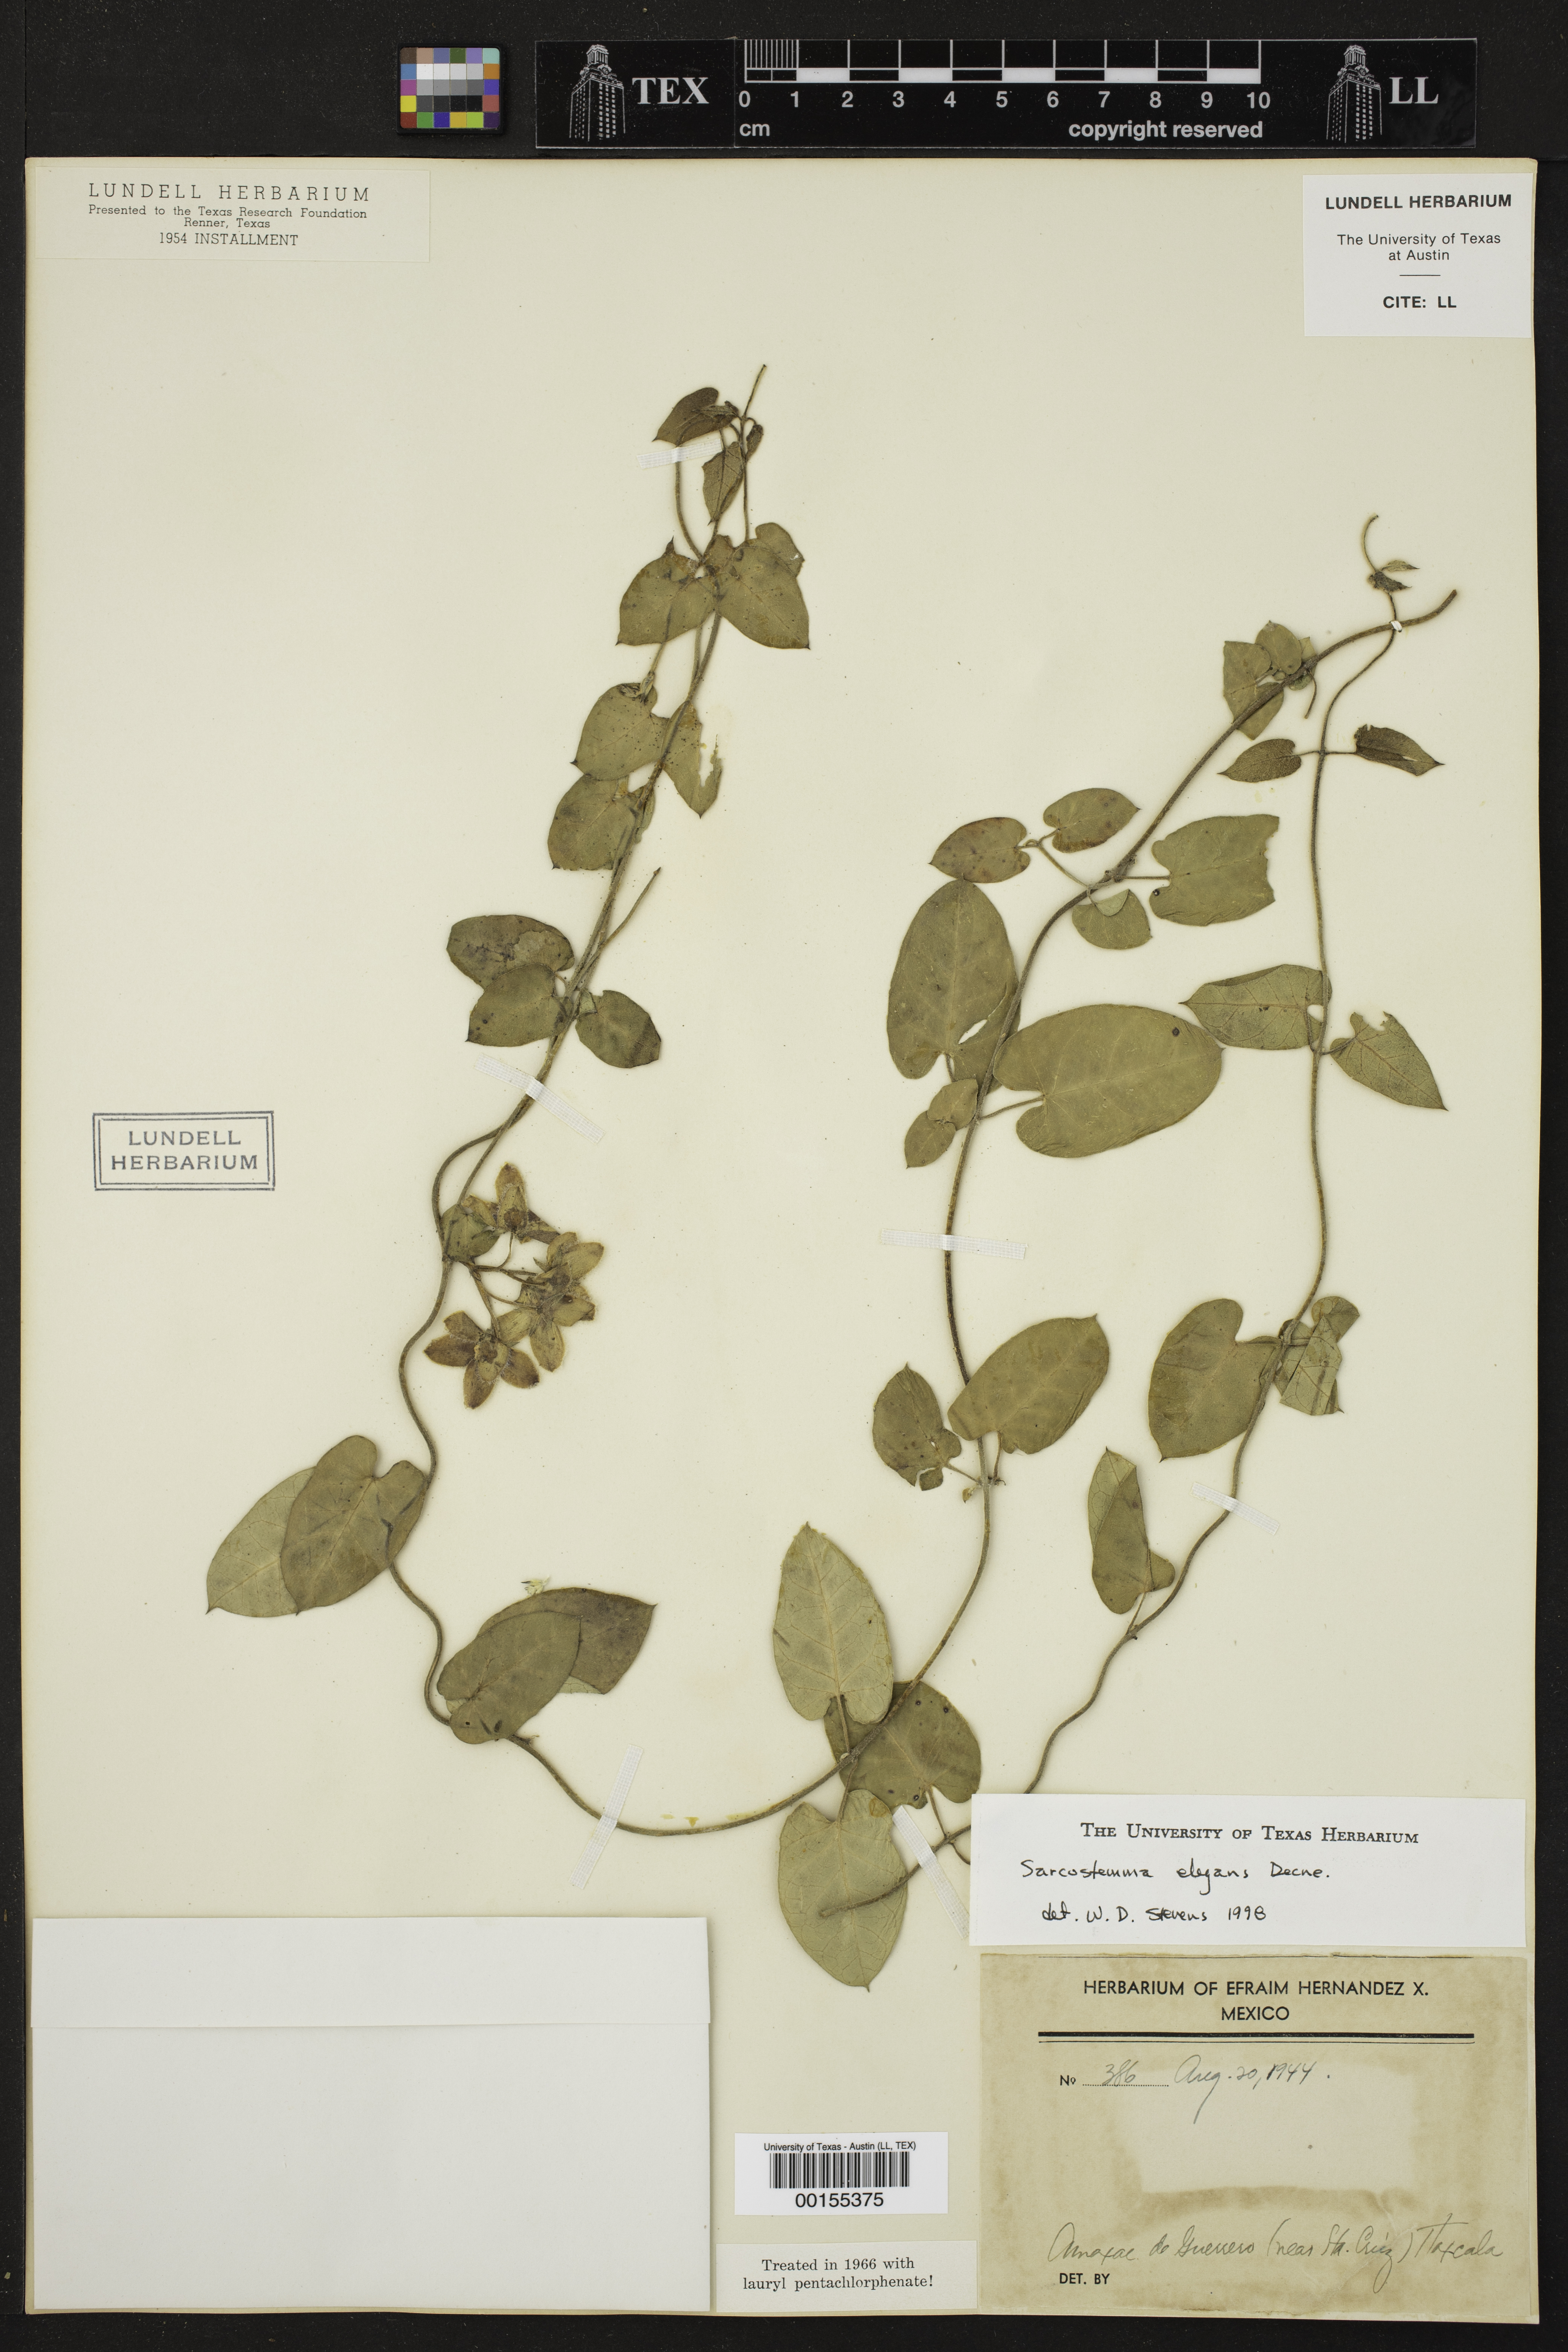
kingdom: Plantae
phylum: Tracheophyta
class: Magnoliopsida
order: Gentianales
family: Apocynaceae
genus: Funastrum
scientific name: Funastrum elegans
